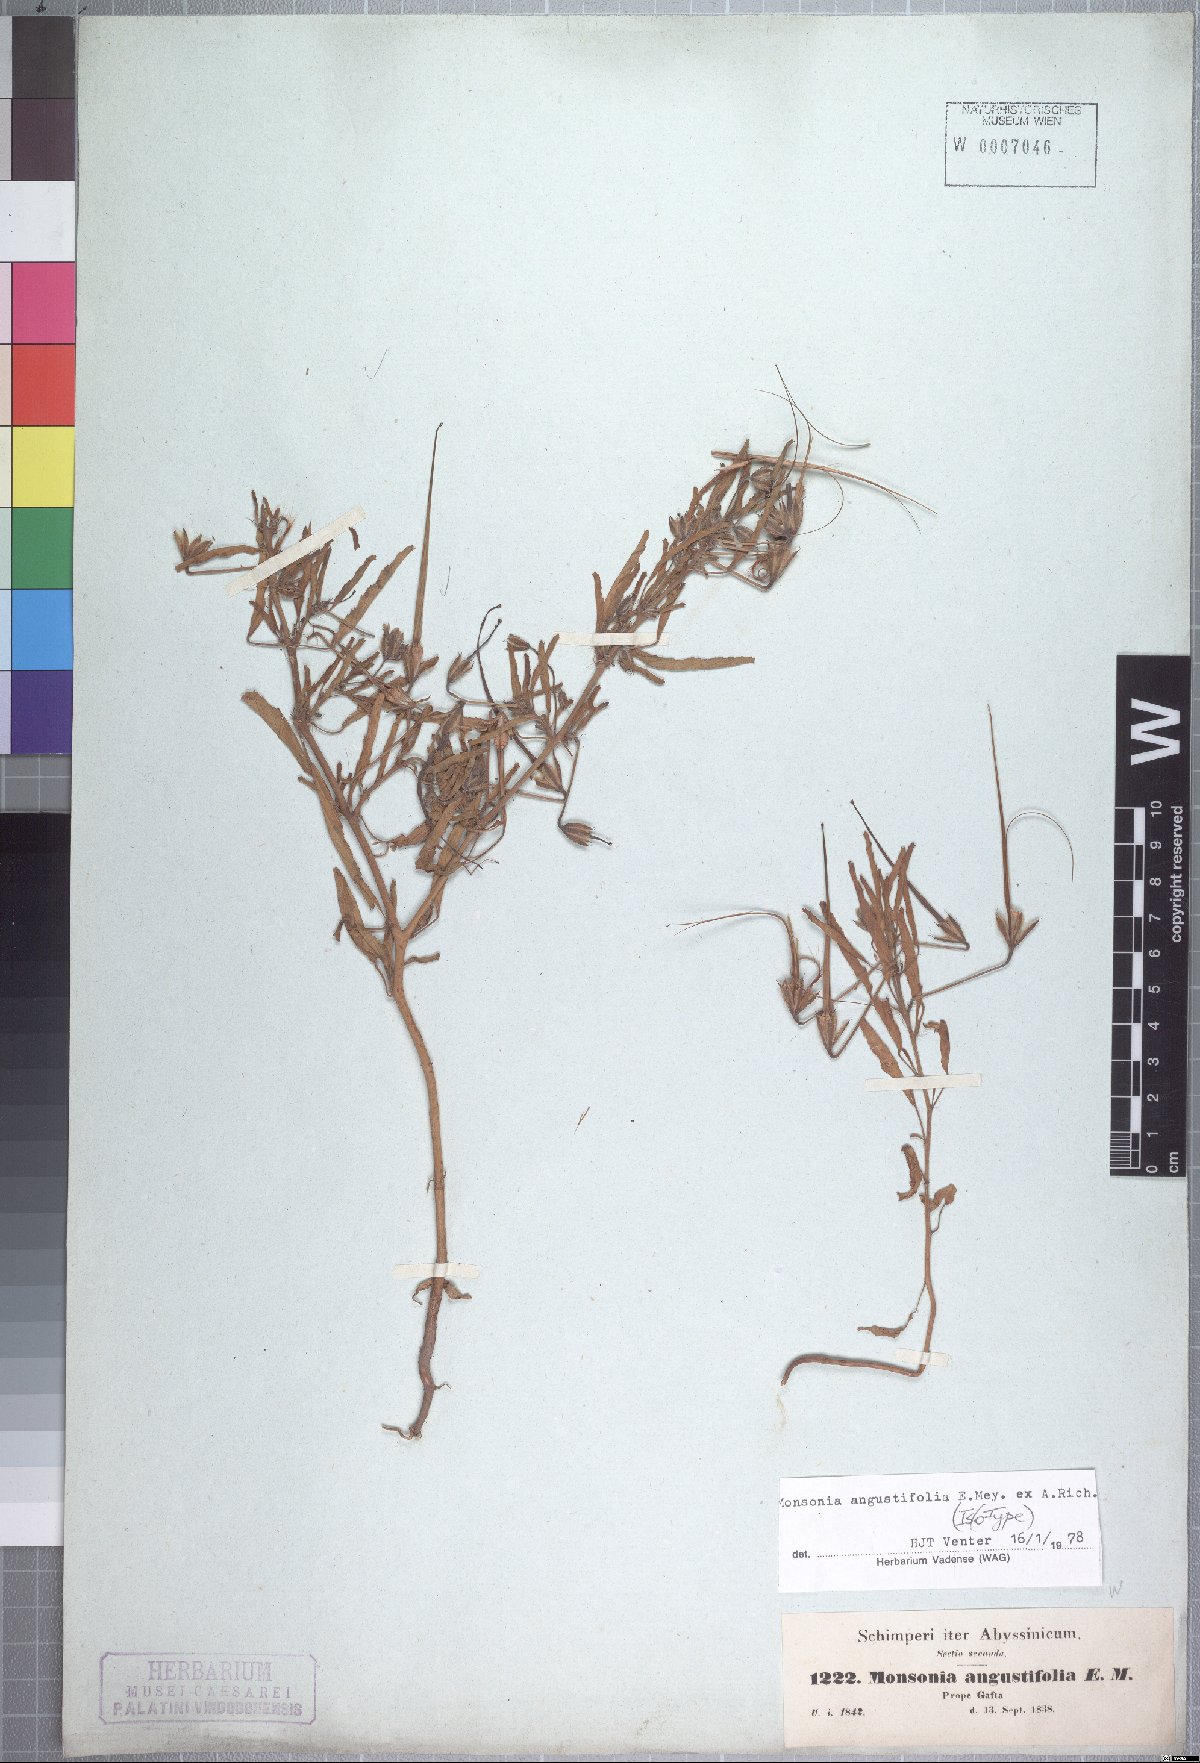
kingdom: Plantae
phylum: Tracheophyta
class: Magnoliopsida
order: Geraniales
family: Geraniaceae
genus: Monsonia
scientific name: Monsonia angustifolia
